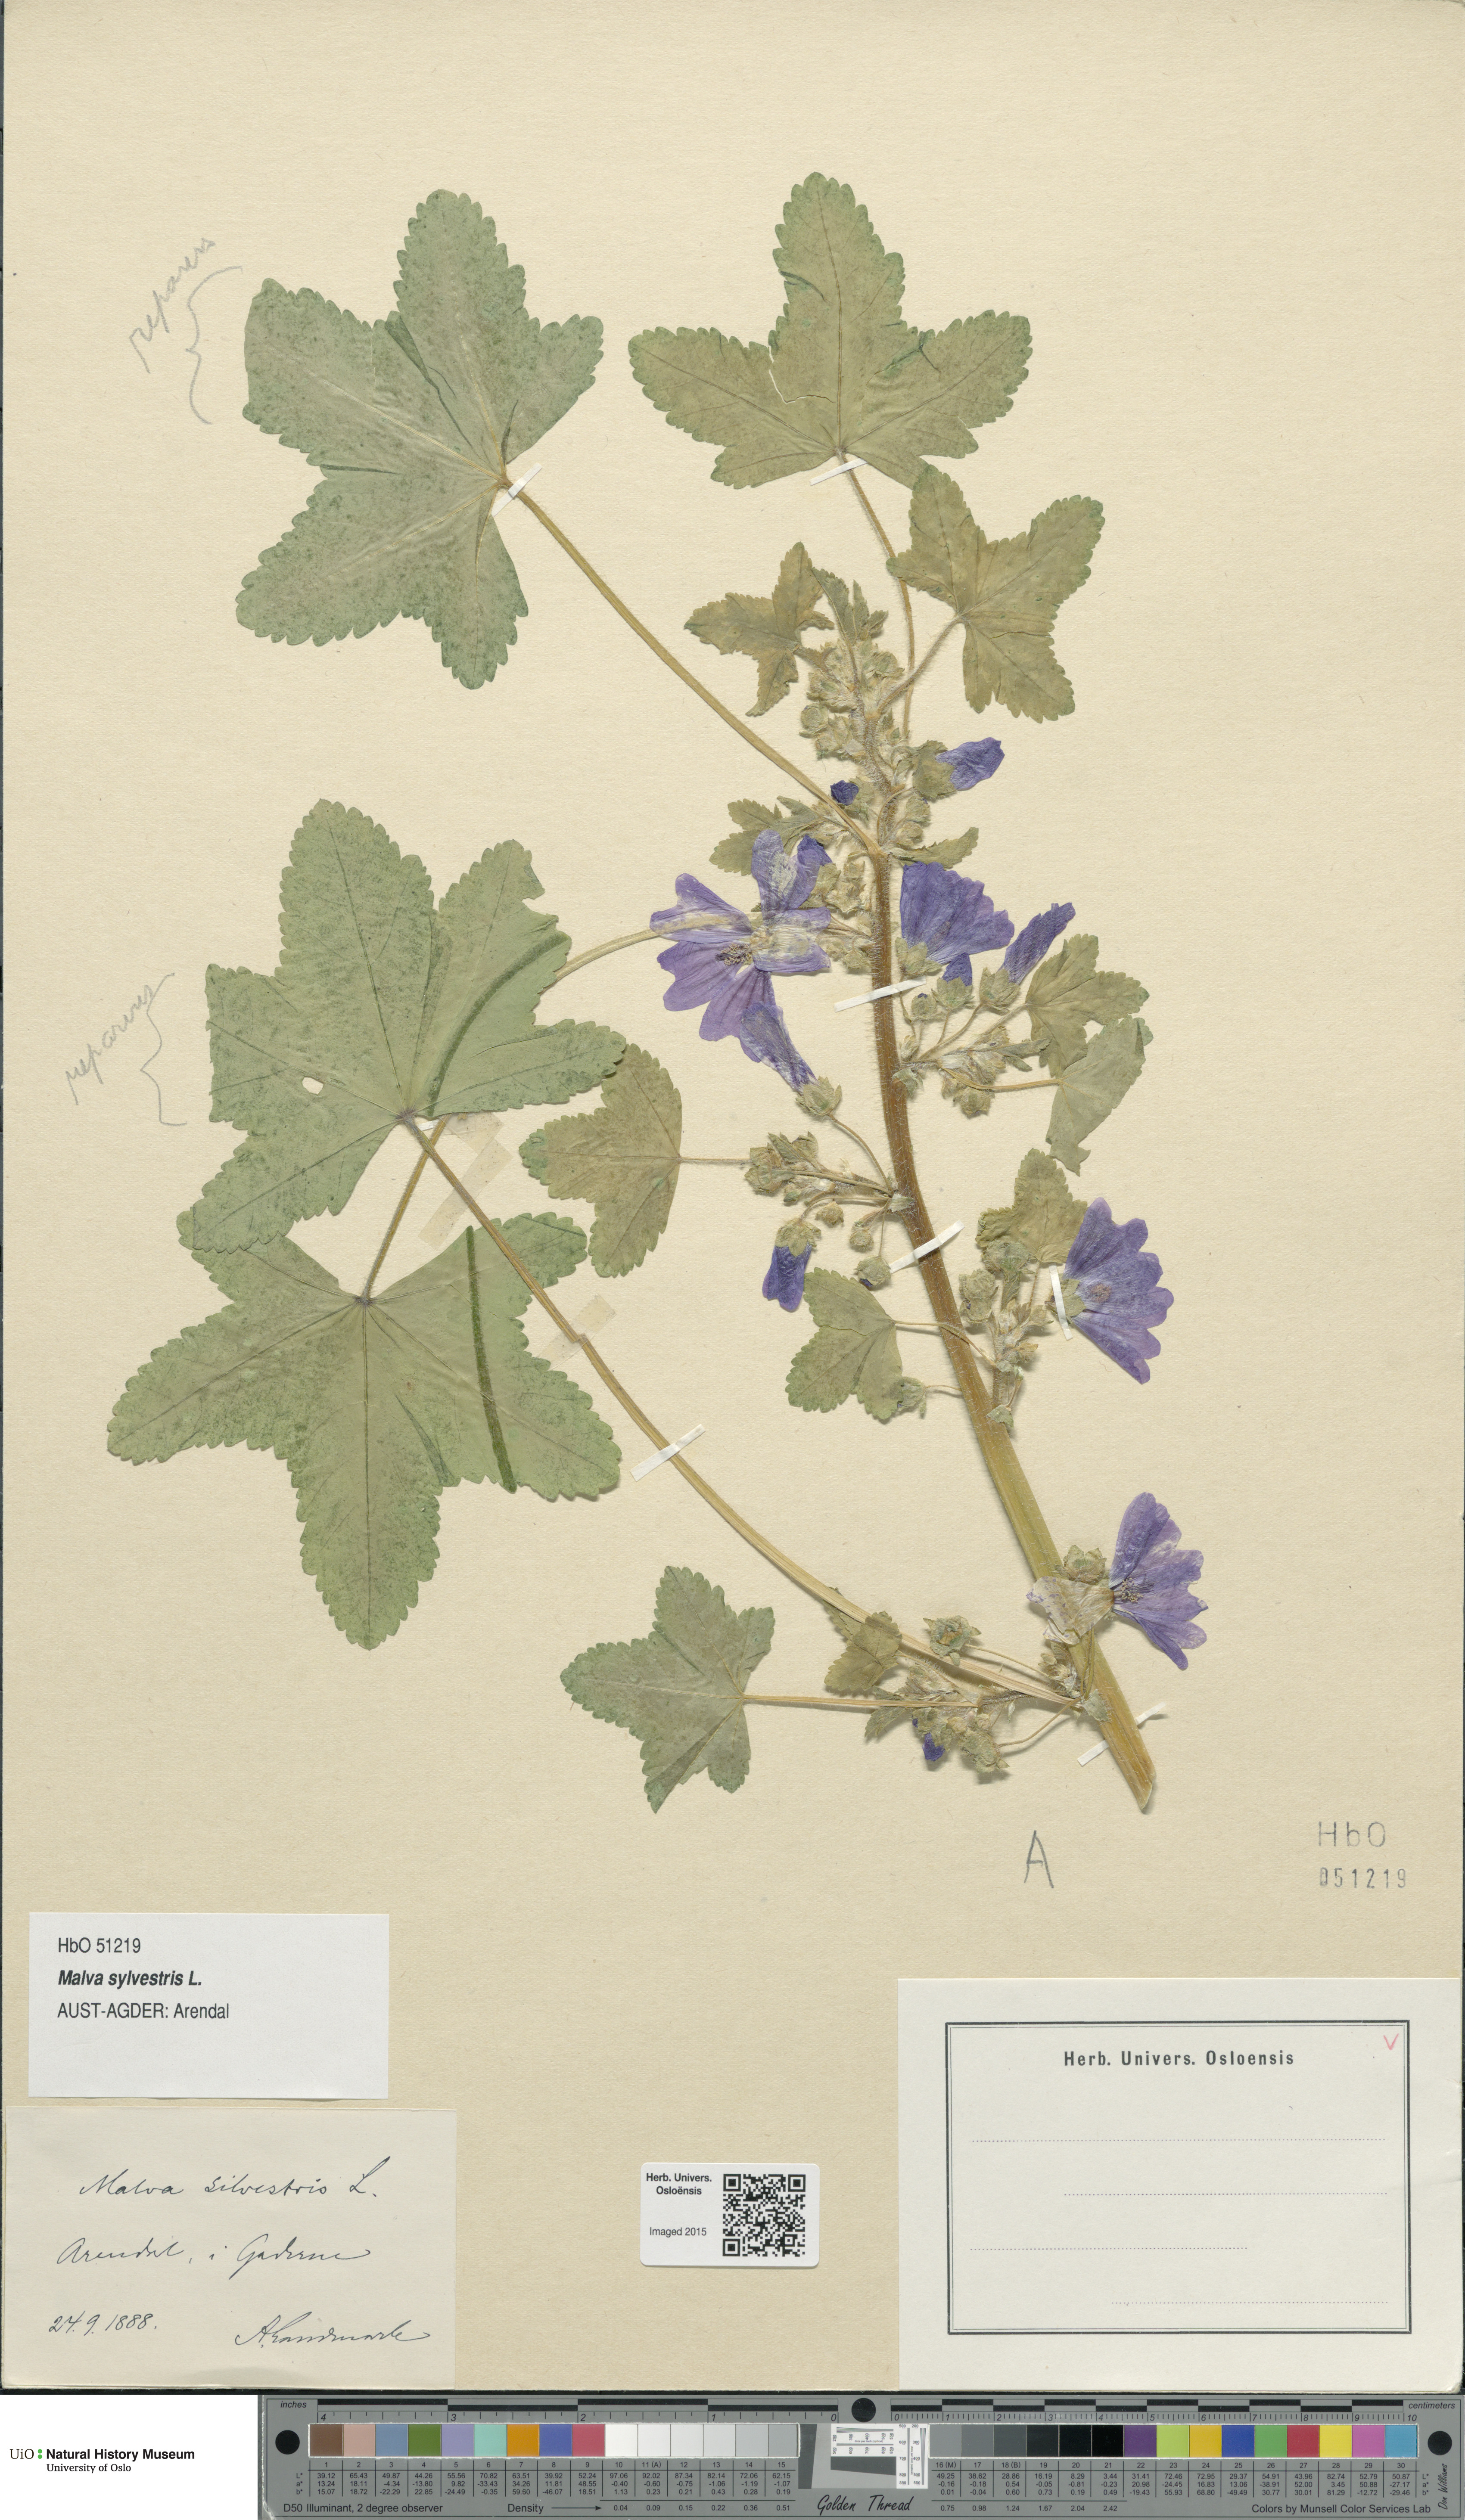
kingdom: Plantae
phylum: Tracheophyta
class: Magnoliopsida
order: Malvales
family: Malvaceae
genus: Malva
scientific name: Malva sylvestris
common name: Common mallow
